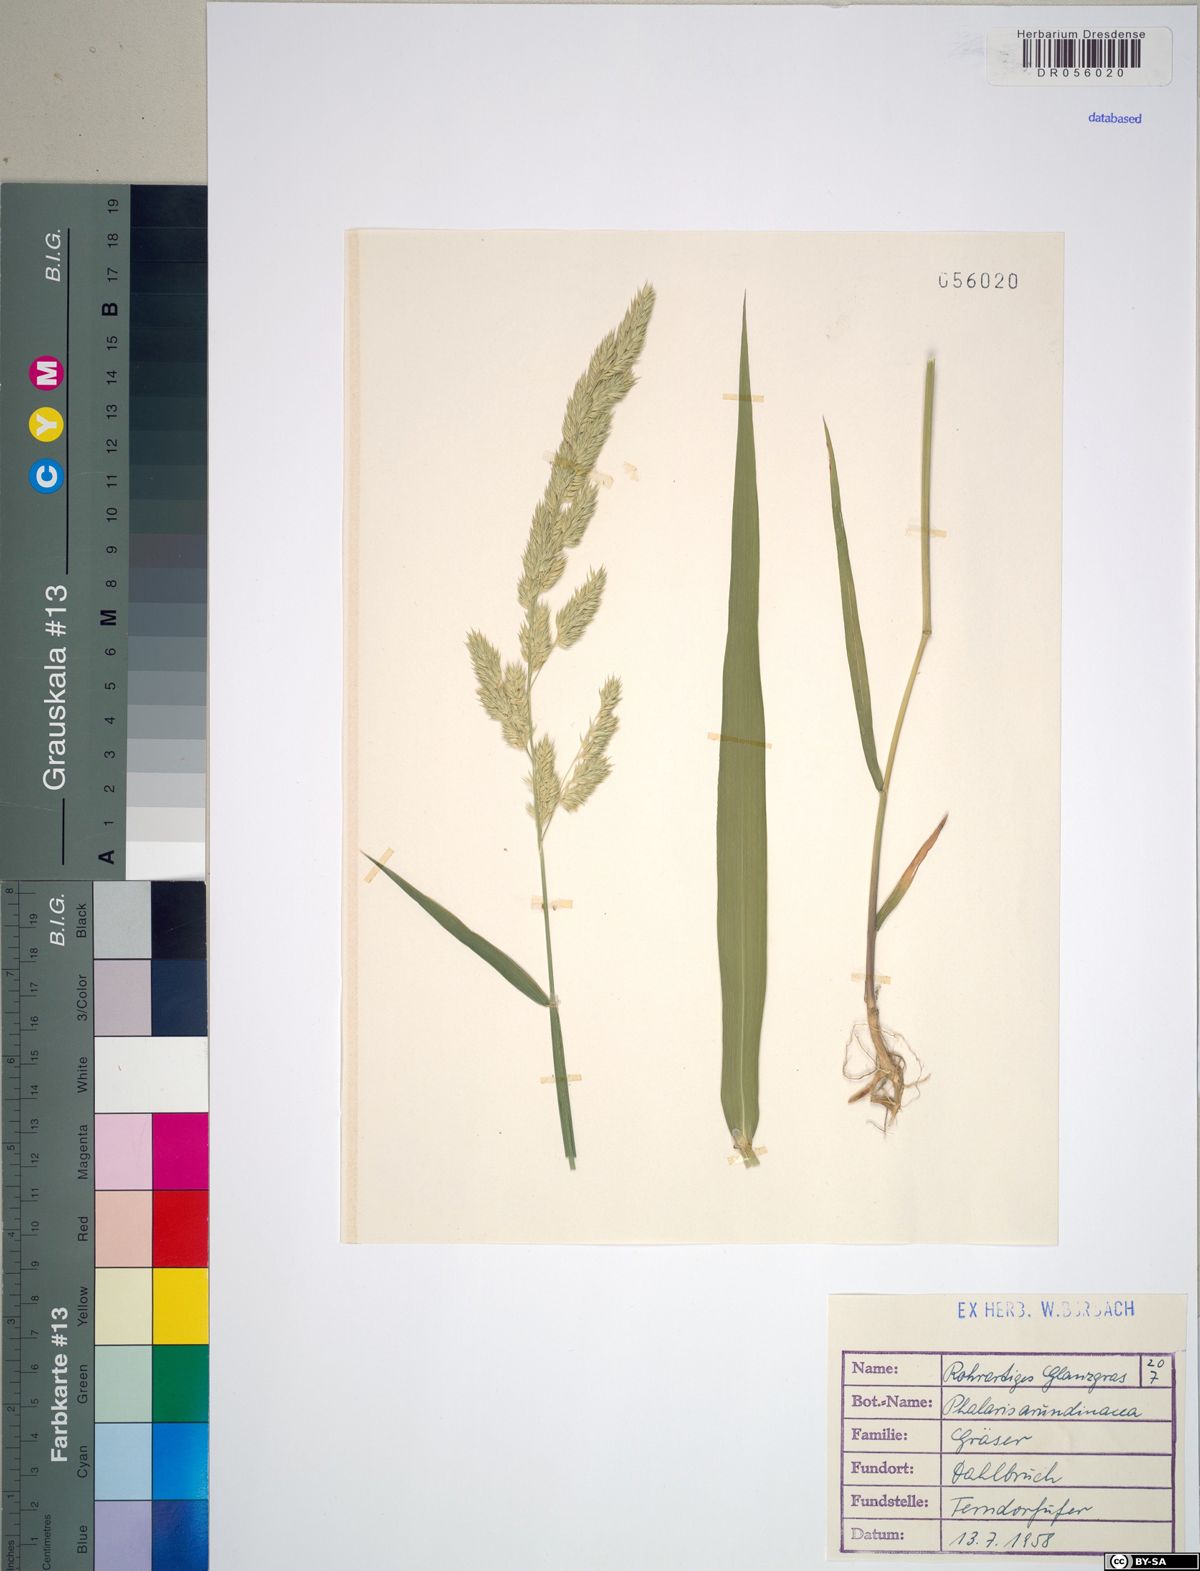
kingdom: Plantae
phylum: Tracheophyta
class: Liliopsida
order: Poales
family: Poaceae
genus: Phalaris
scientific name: Phalaris arundinacea
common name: Reed canary-grass
